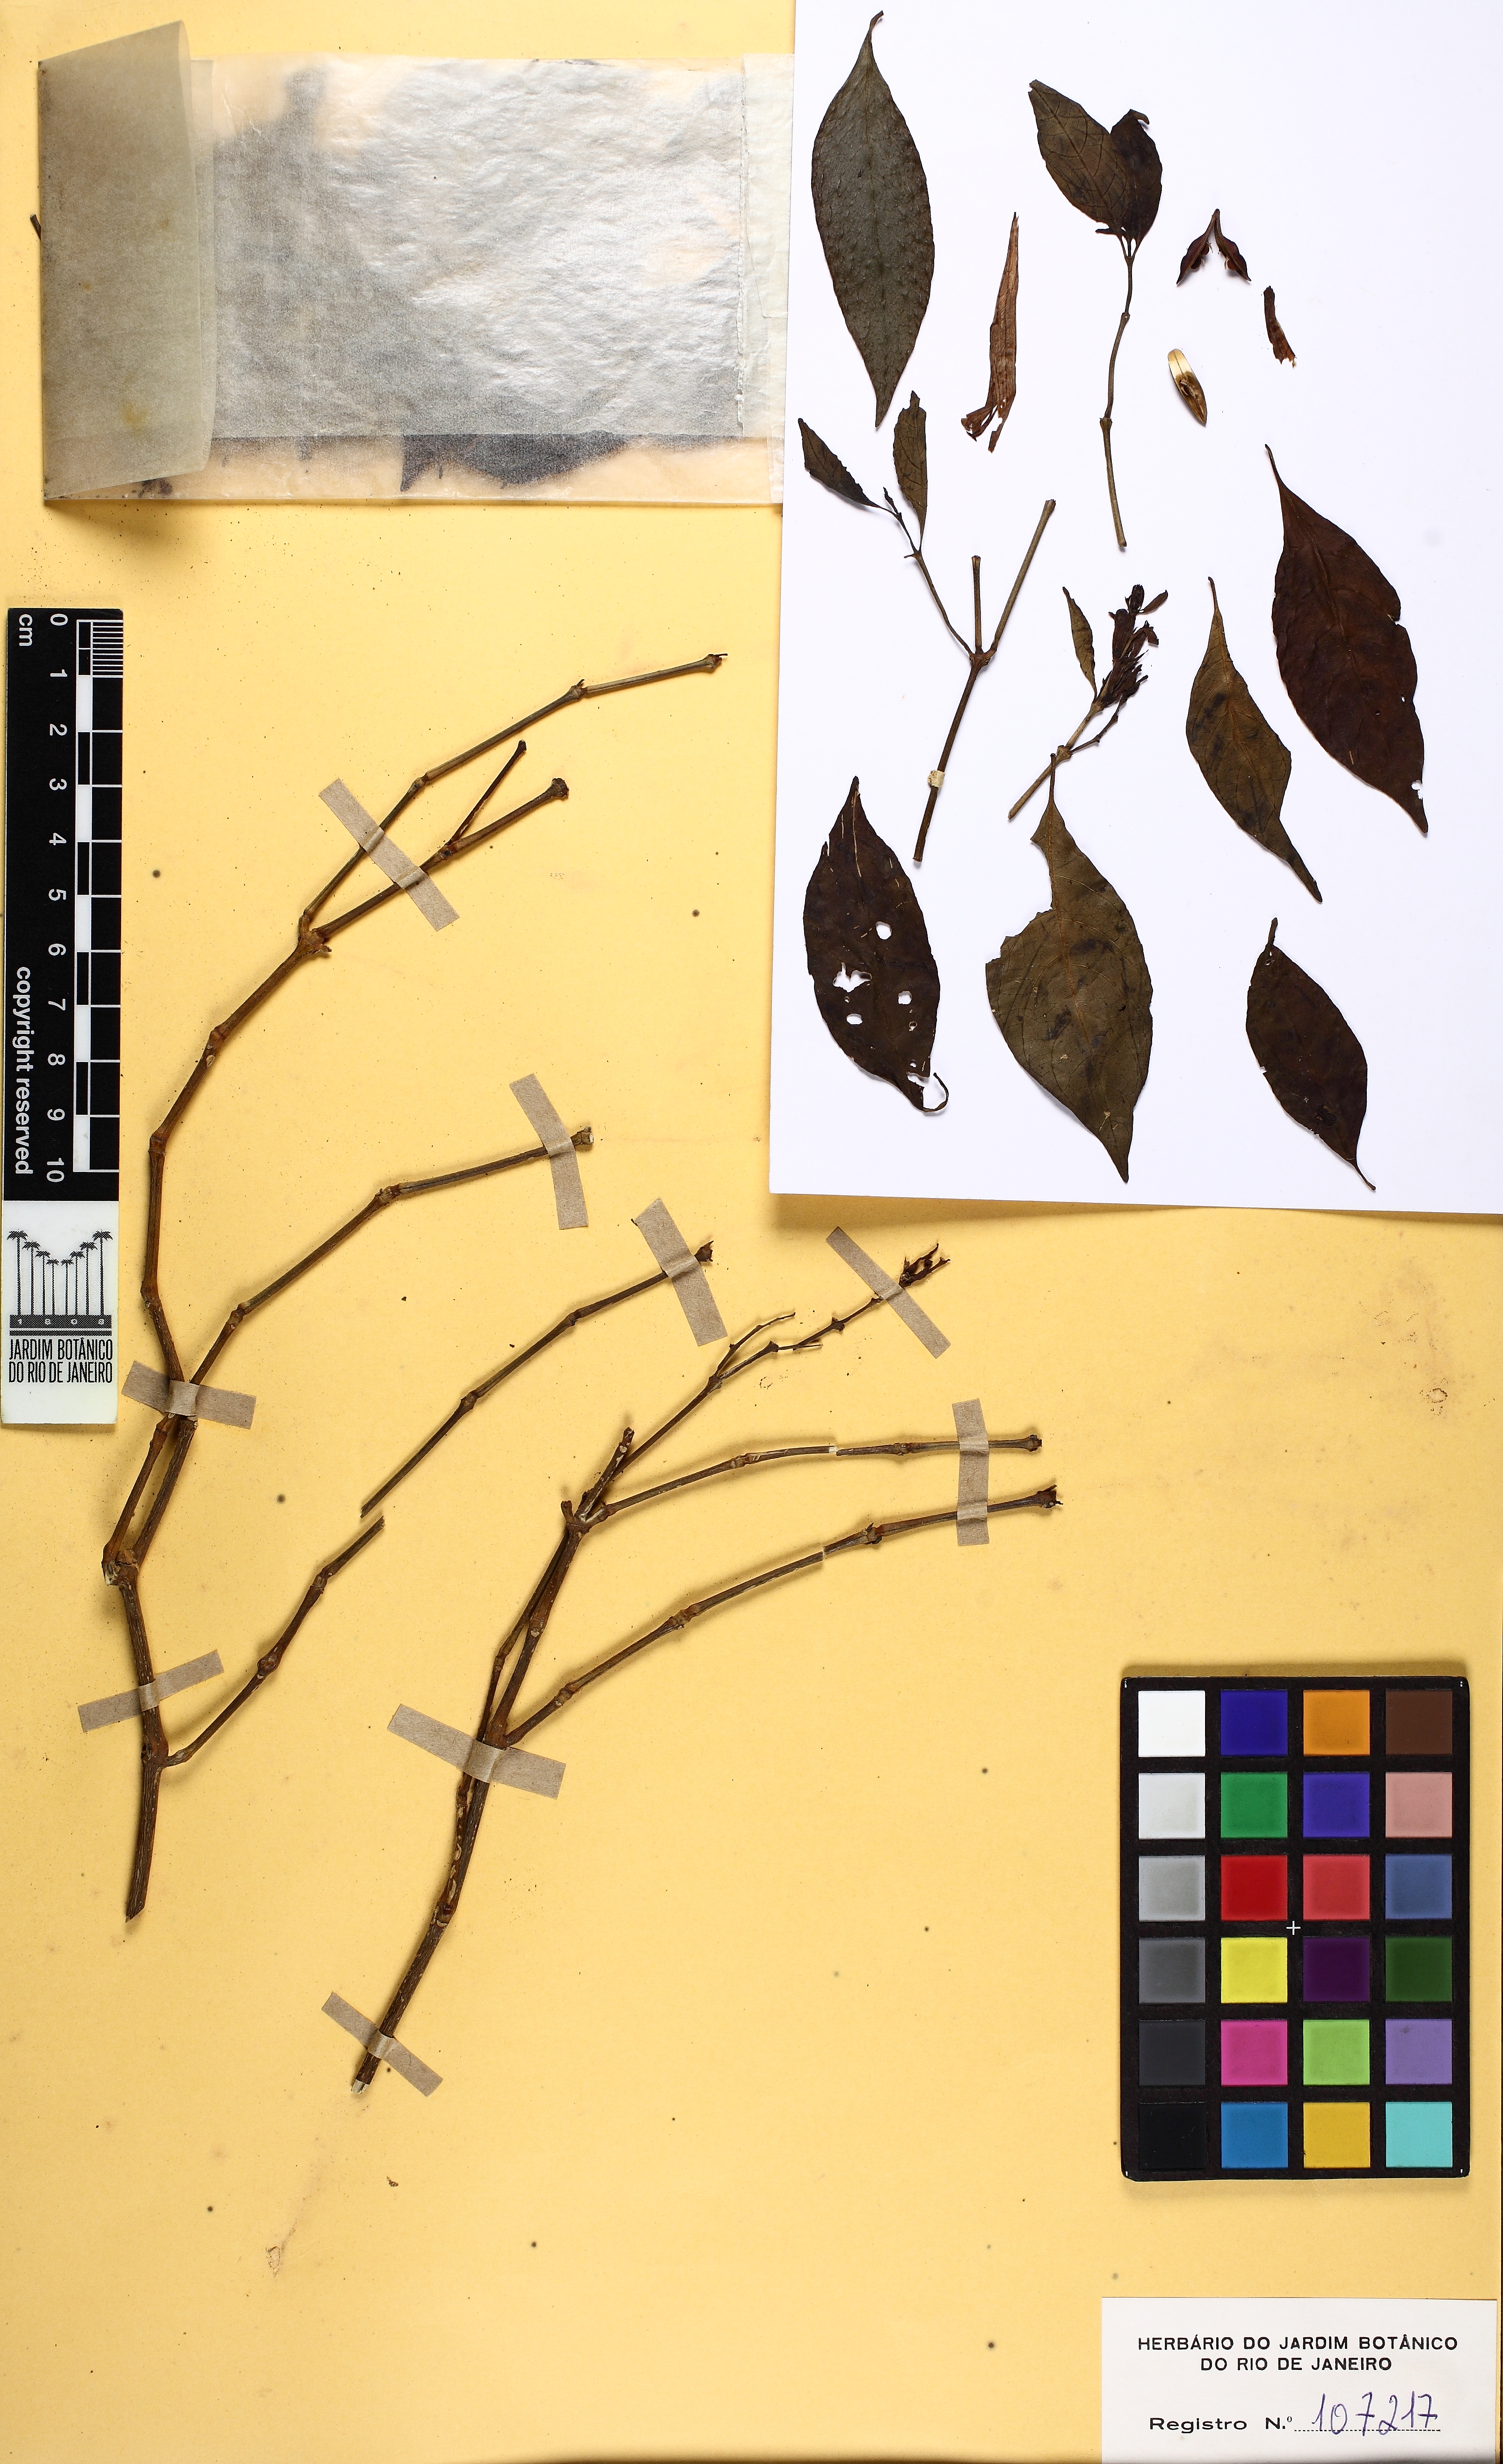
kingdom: Plantae
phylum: Tracheophyta
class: Magnoliopsida
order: Lamiales
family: Acanthaceae
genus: Justicia
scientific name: Justicia
